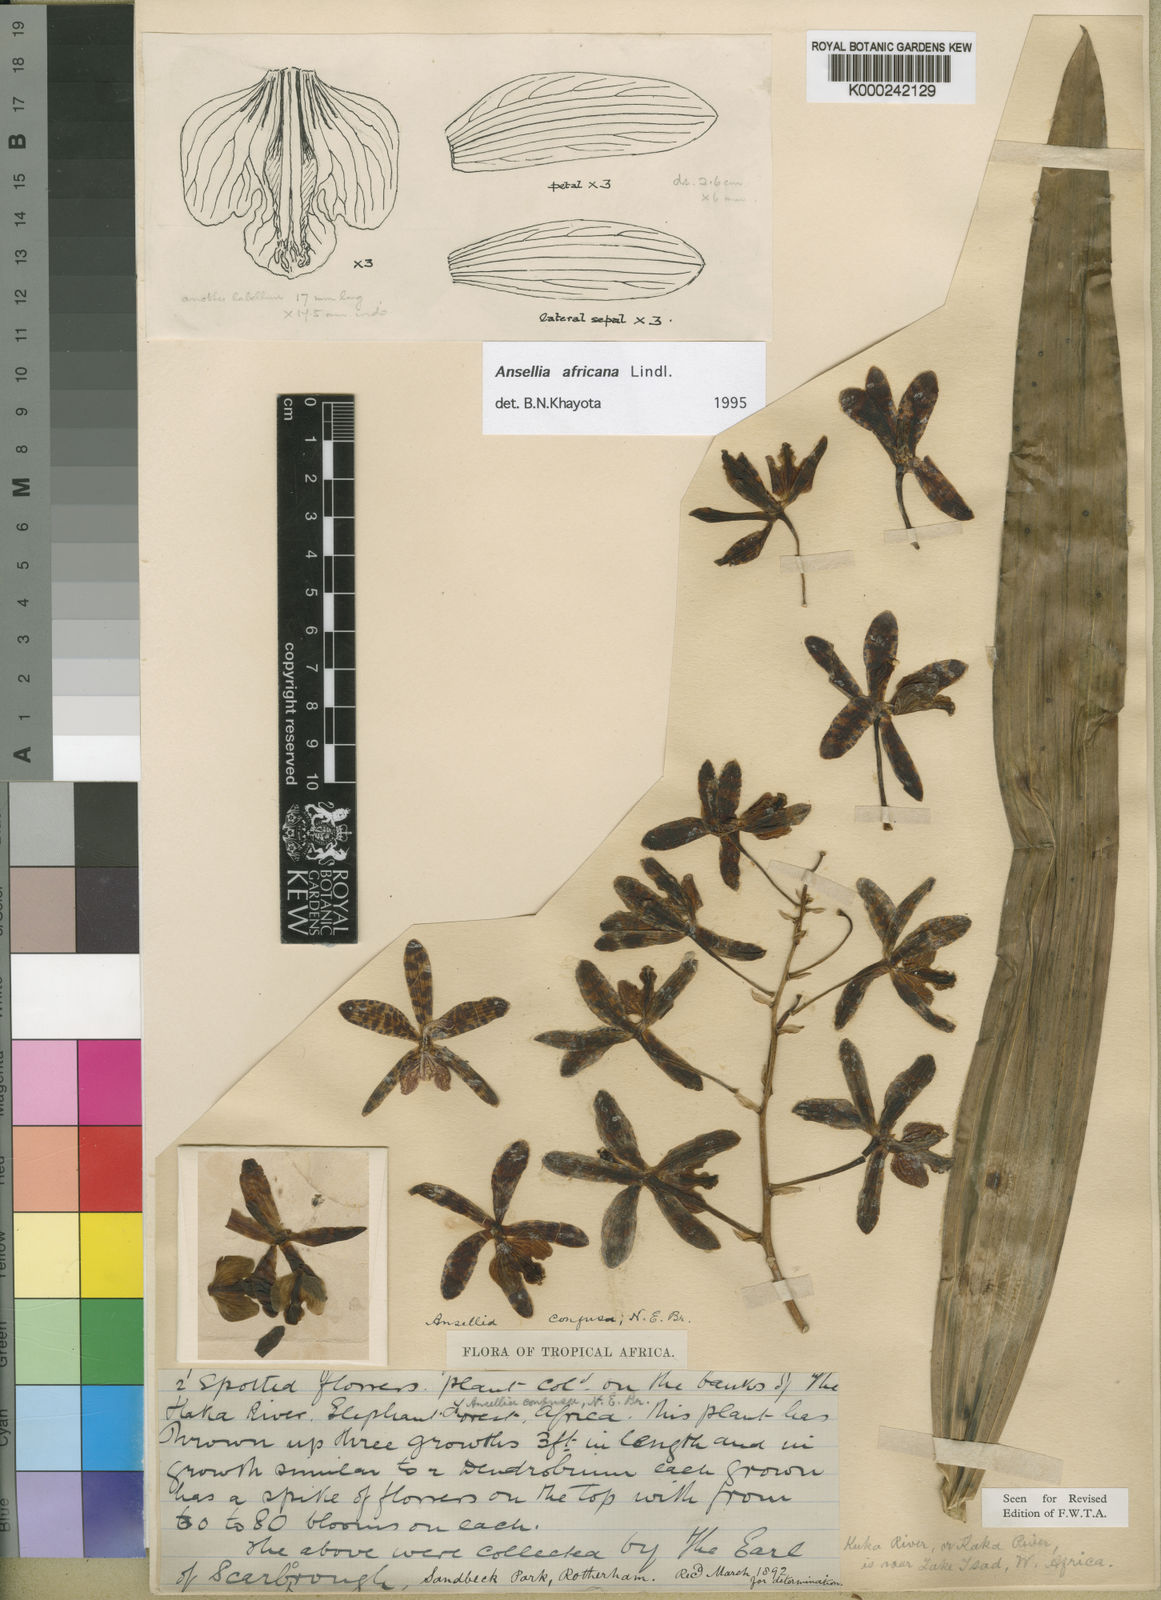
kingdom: Plantae
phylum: Tracheophyta
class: Liliopsida
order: Asparagales
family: Orchidaceae
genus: Ansellia
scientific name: Ansellia africana
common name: African ansellia
